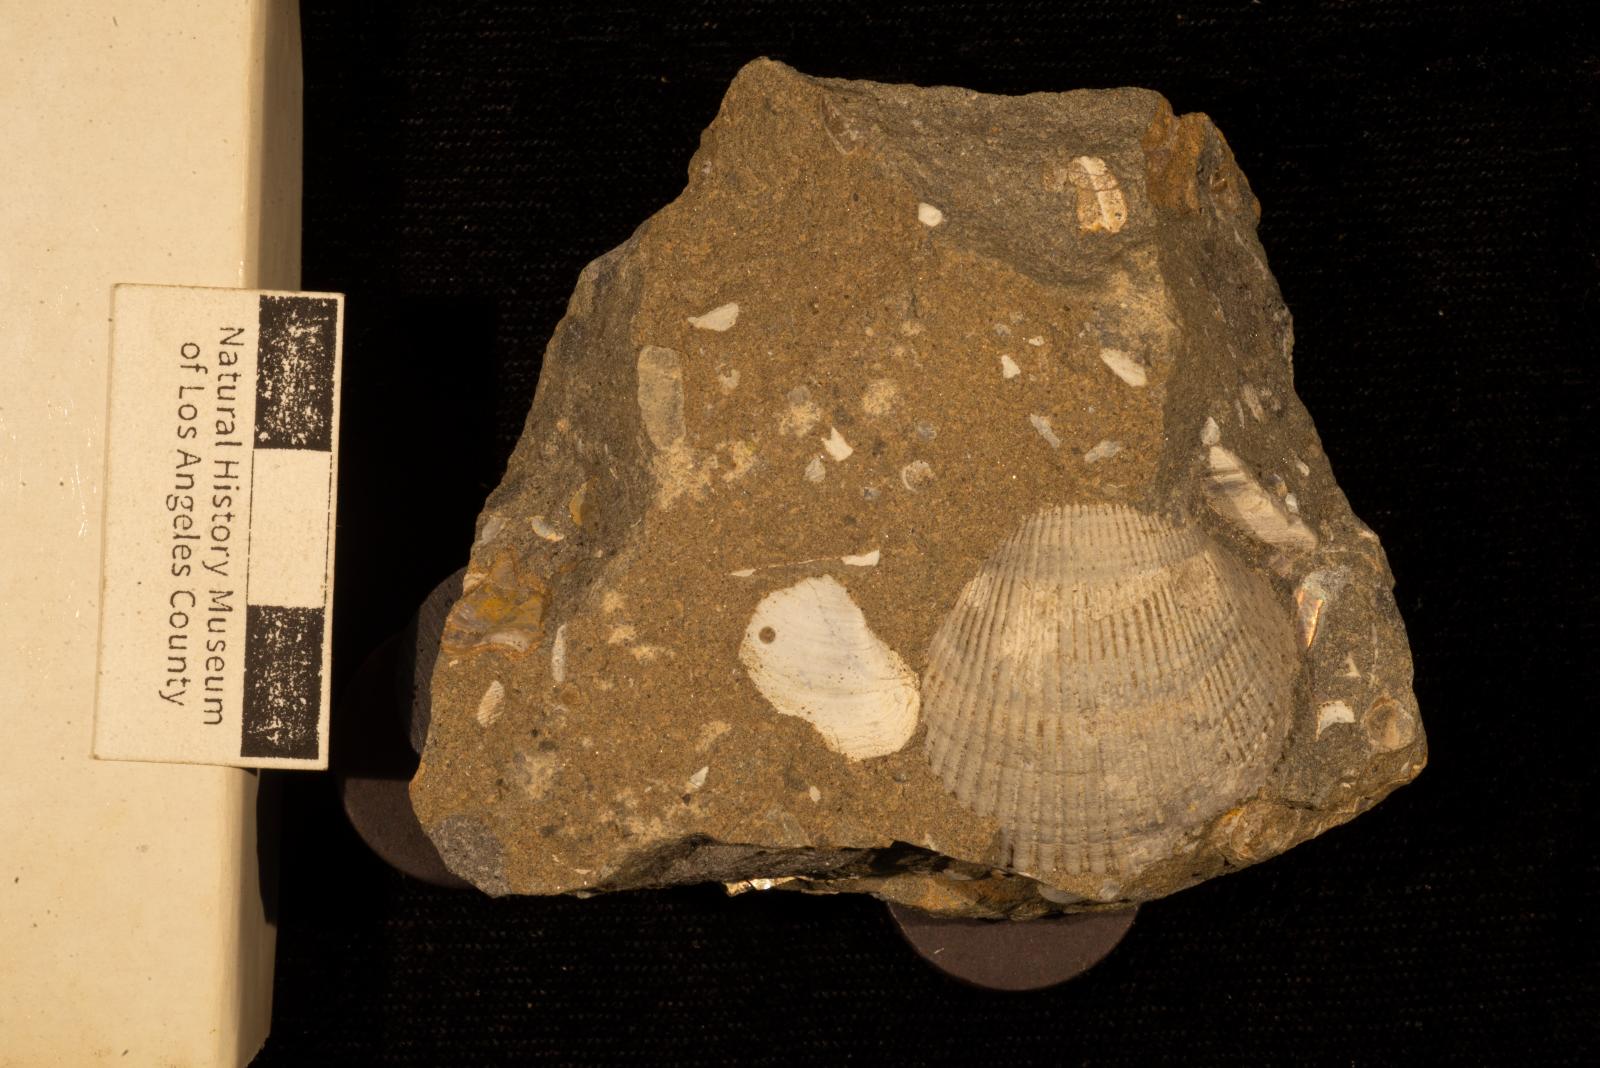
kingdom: Animalia
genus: Oichnus
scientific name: Oichnus
